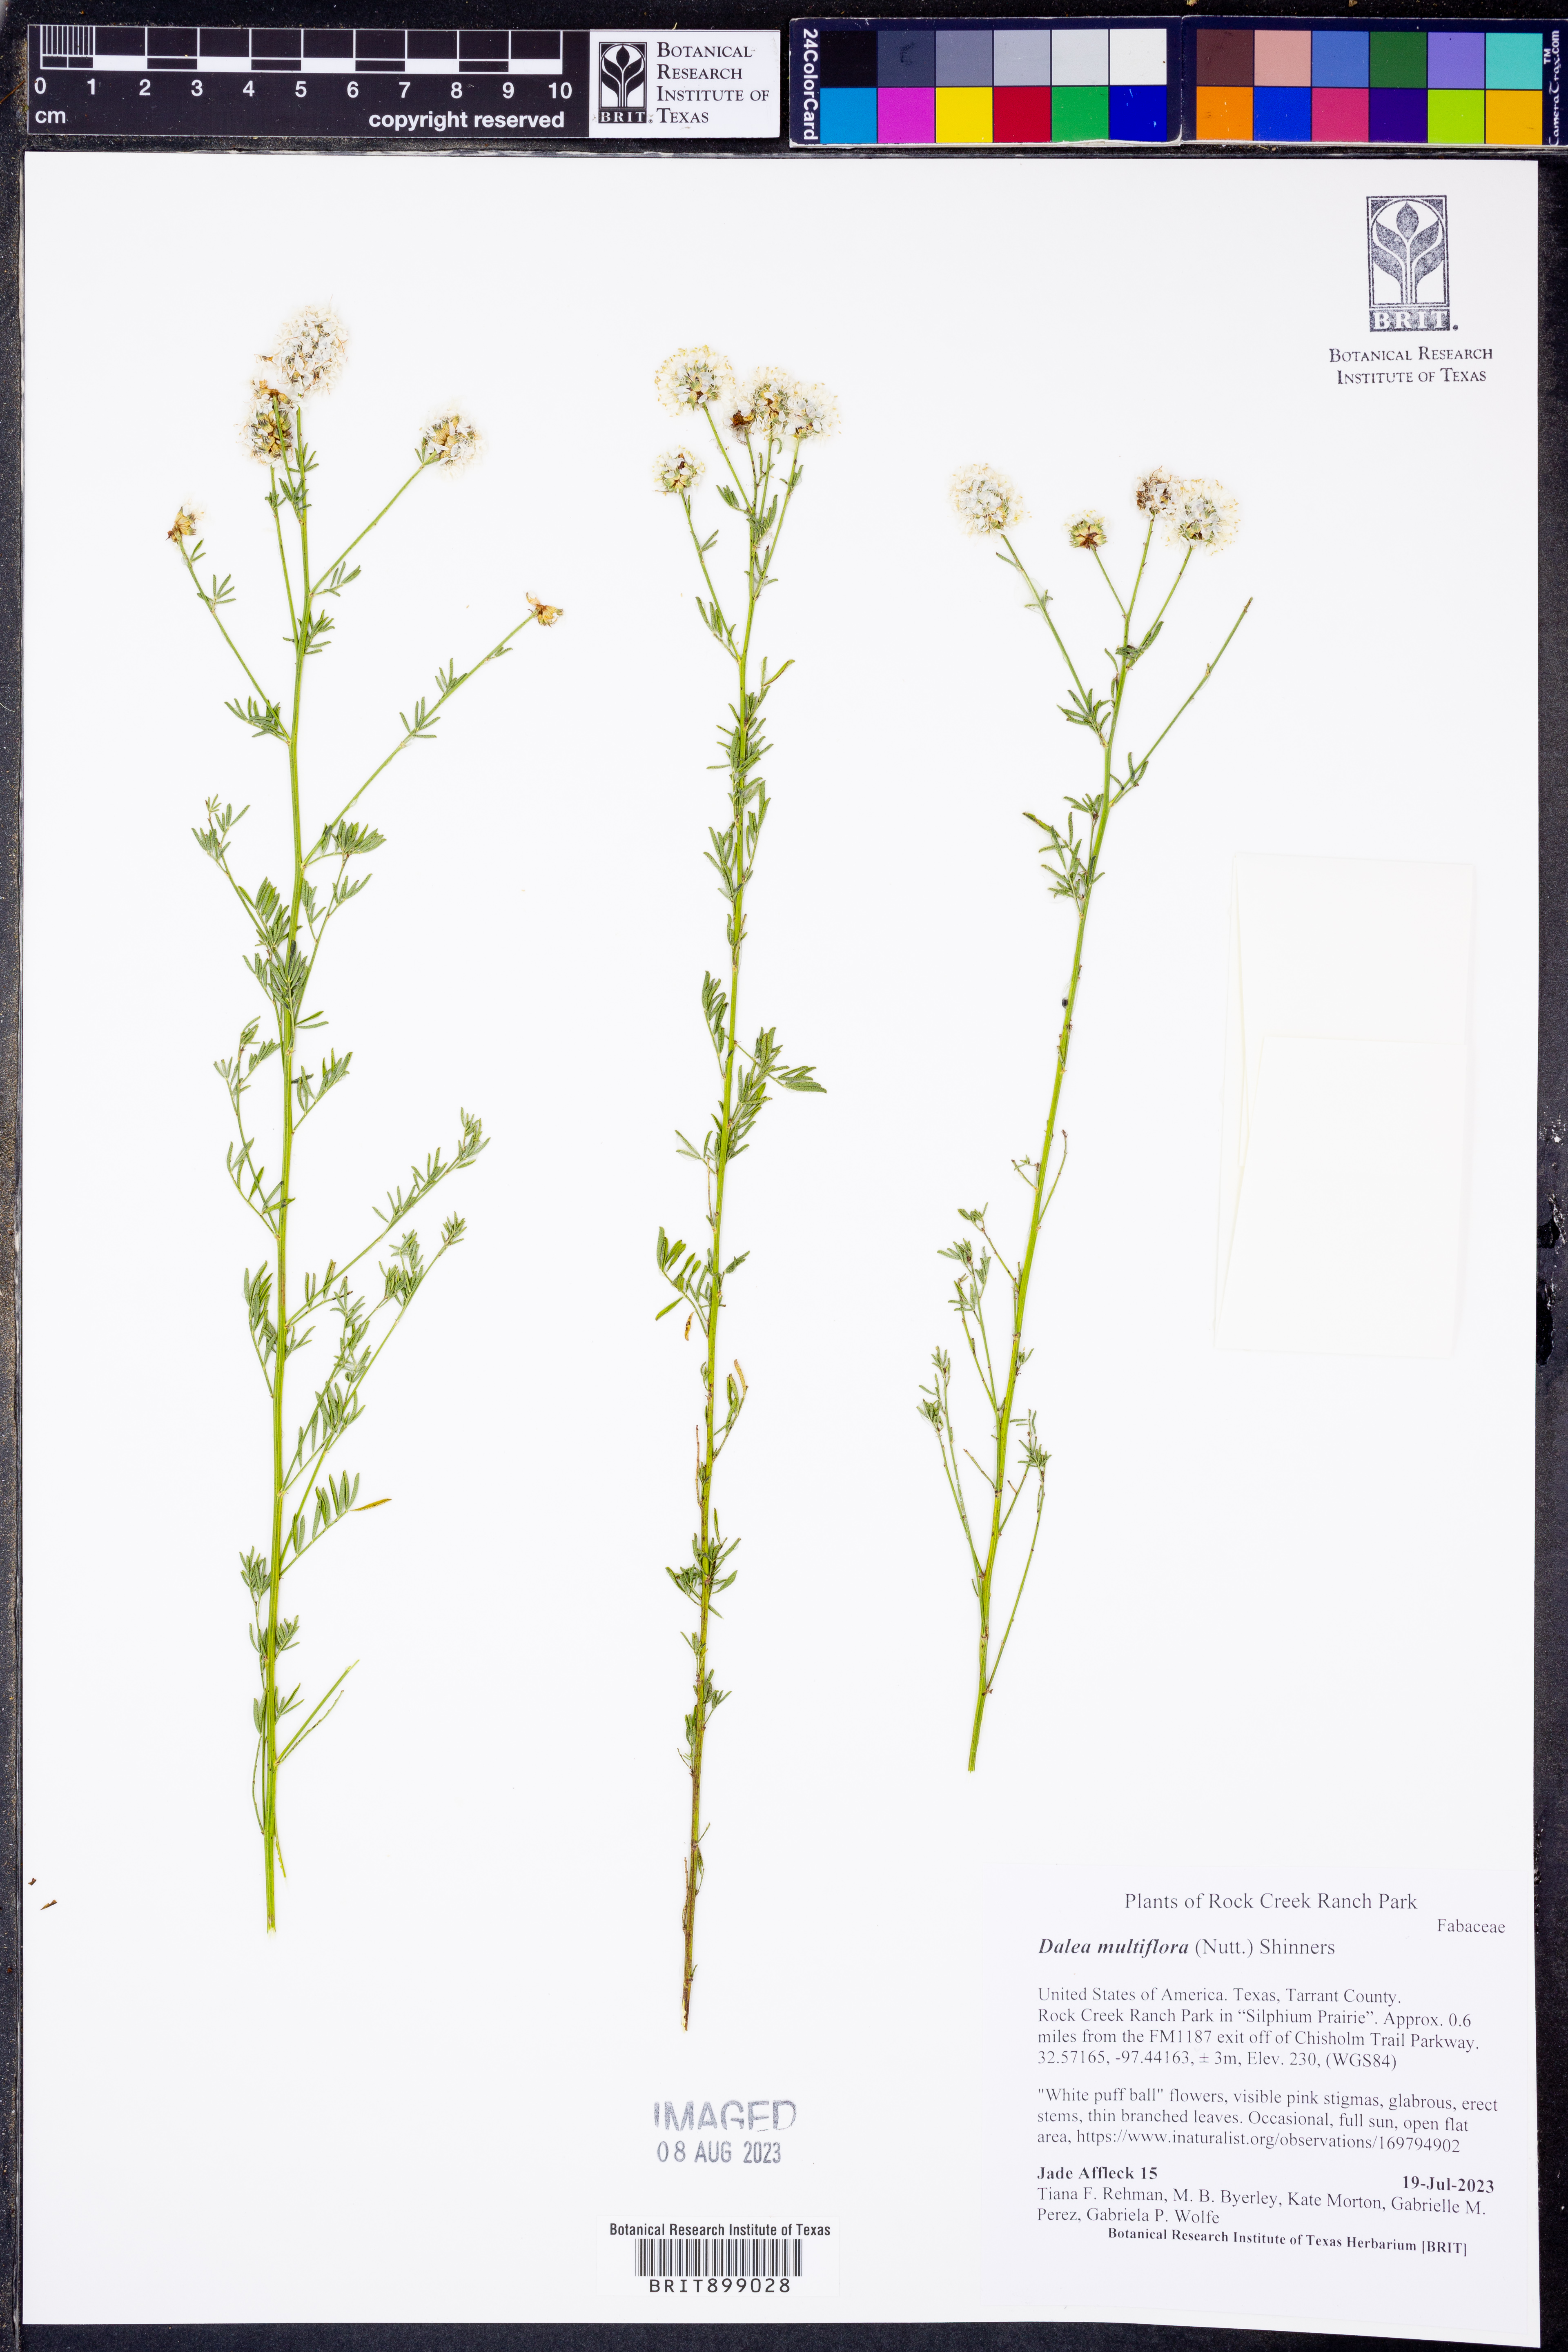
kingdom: Plantae
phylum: Tracheophyta
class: Magnoliopsida
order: Fabales
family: Fabaceae
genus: Dalea
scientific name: Dalea multiflora
